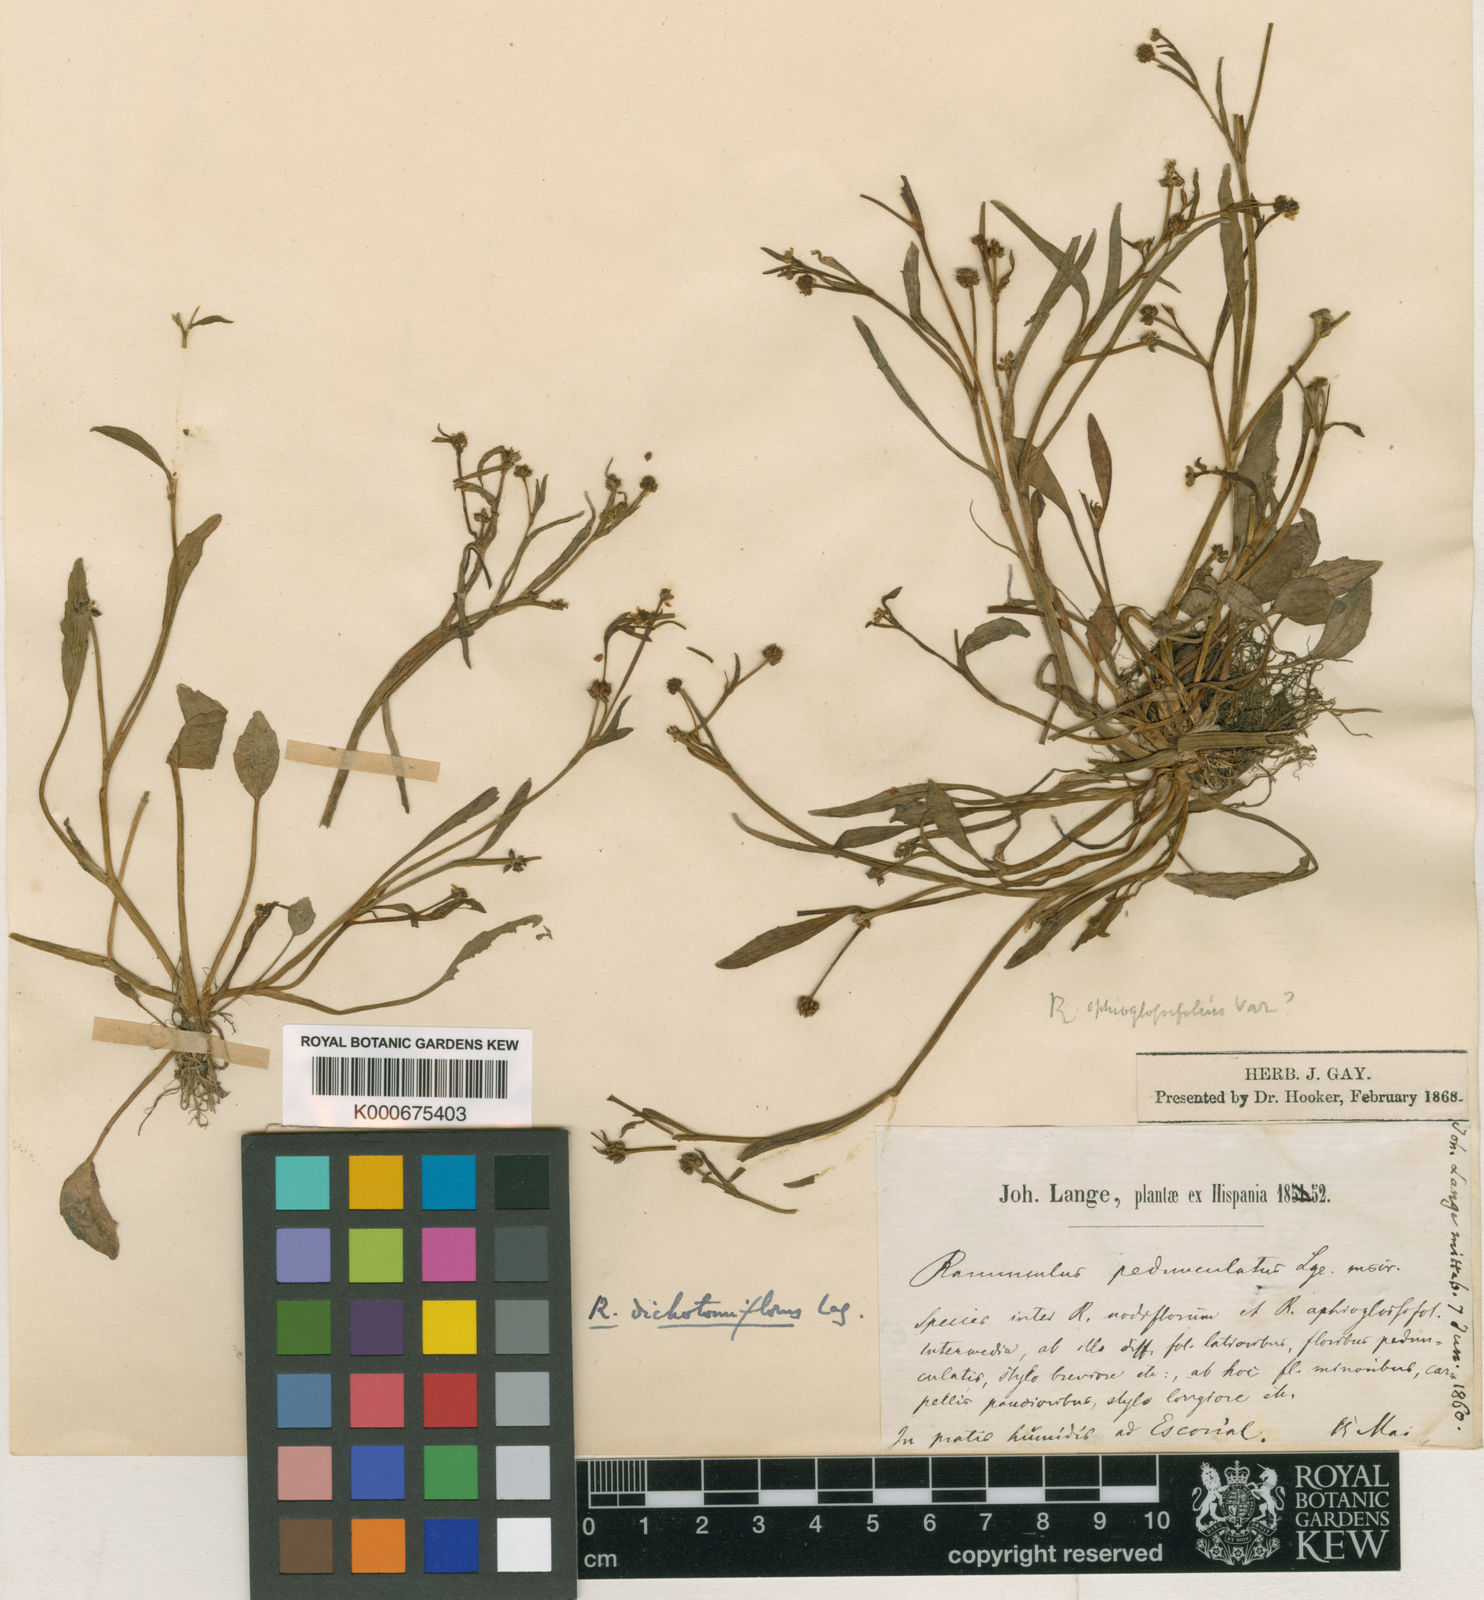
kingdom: Plantae
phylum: Tracheophyta
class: Magnoliopsida
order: Ranunculales
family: Ranunculaceae
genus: Ranunculus
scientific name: Ranunculus longipes
